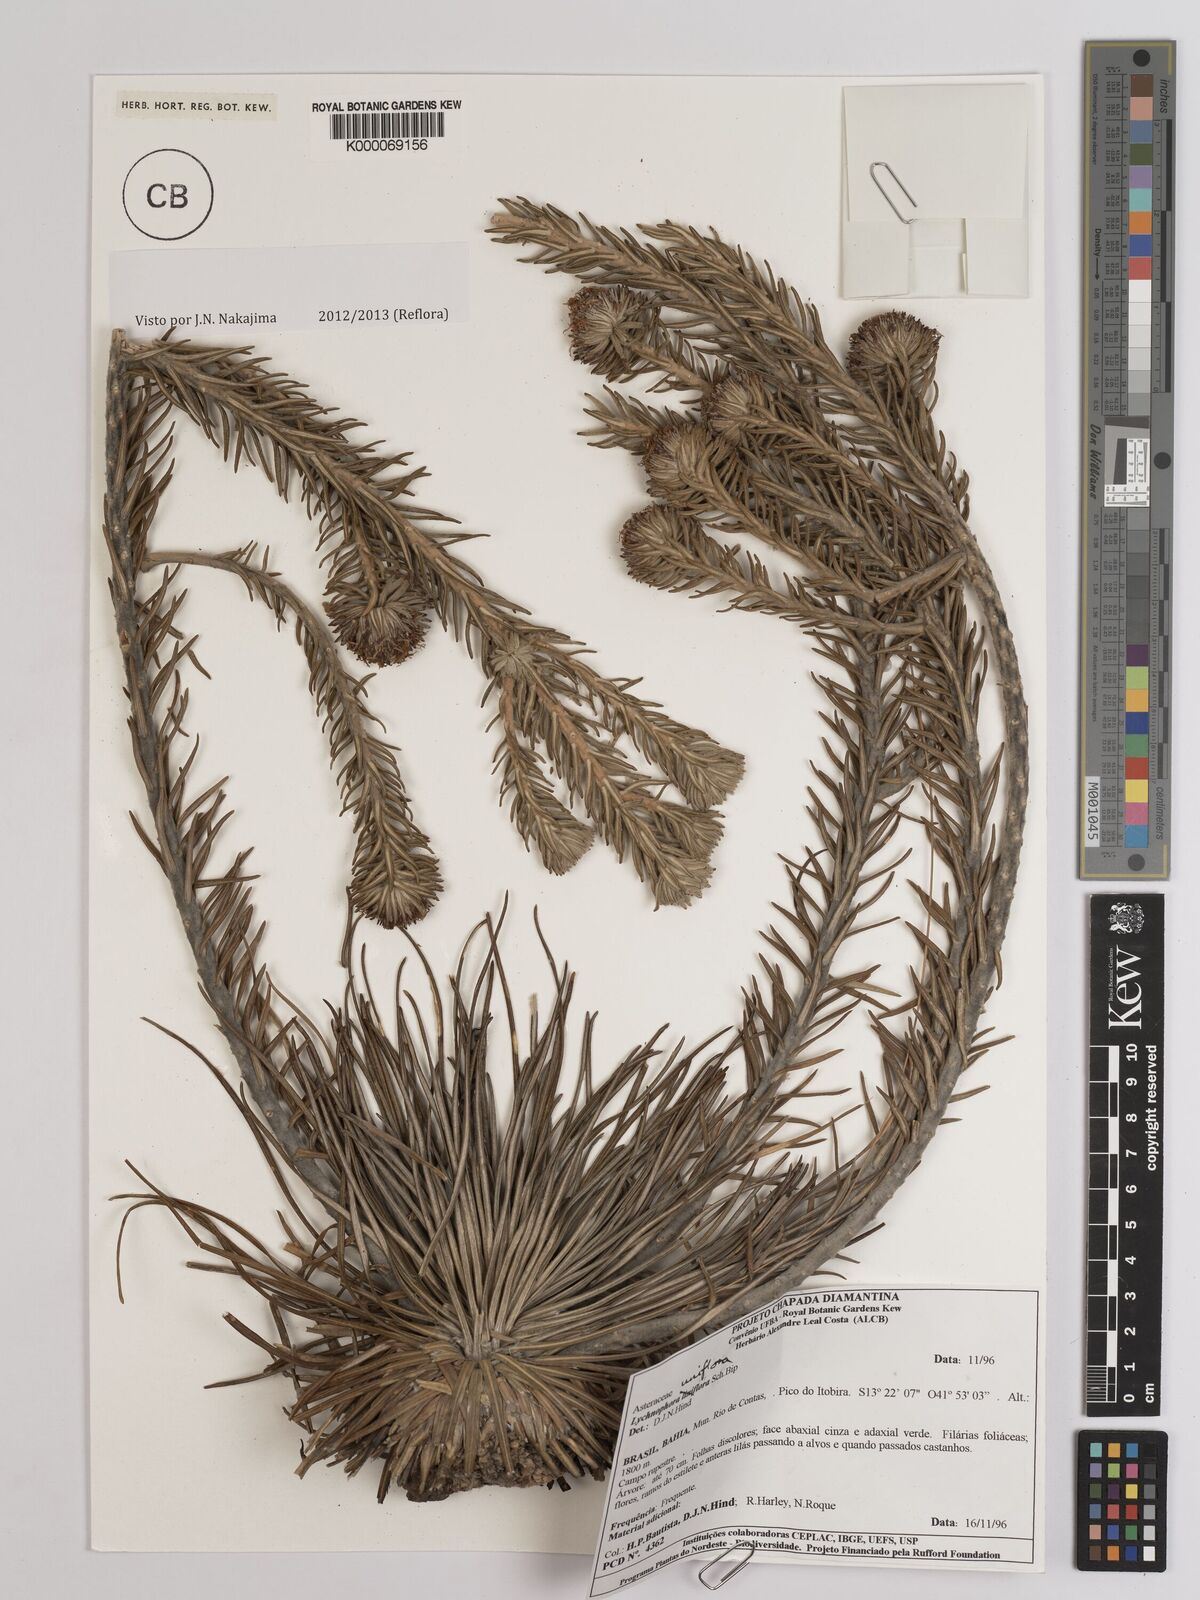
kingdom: Plantae
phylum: Tracheophyta
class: Magnoliopsida
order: Asterales
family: Asteraceae
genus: Lychnophora
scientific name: Lychnophora uniflora
